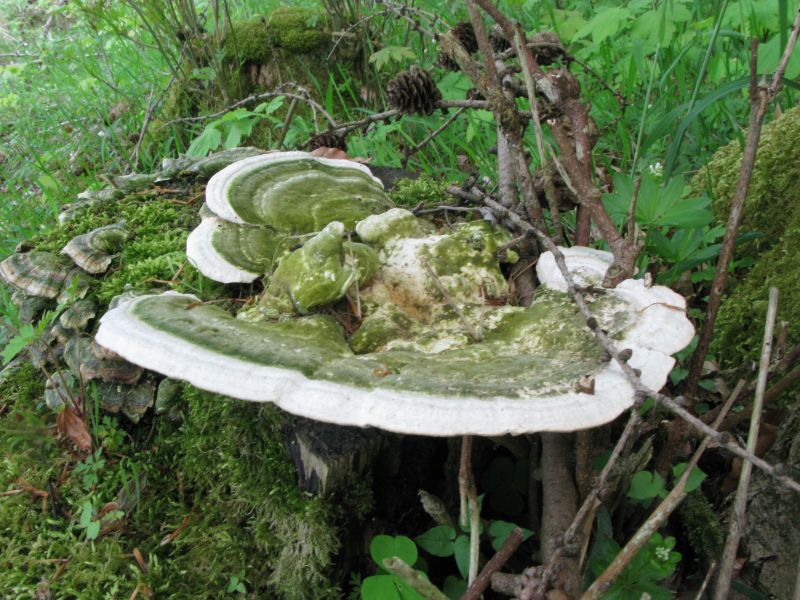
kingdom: Fungi
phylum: Basidiomycota
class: Agaricomycetes
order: Polyporales
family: Polyporaceae
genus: Trametes
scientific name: Trametes gibbosa
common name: puklet læderporesvamp
